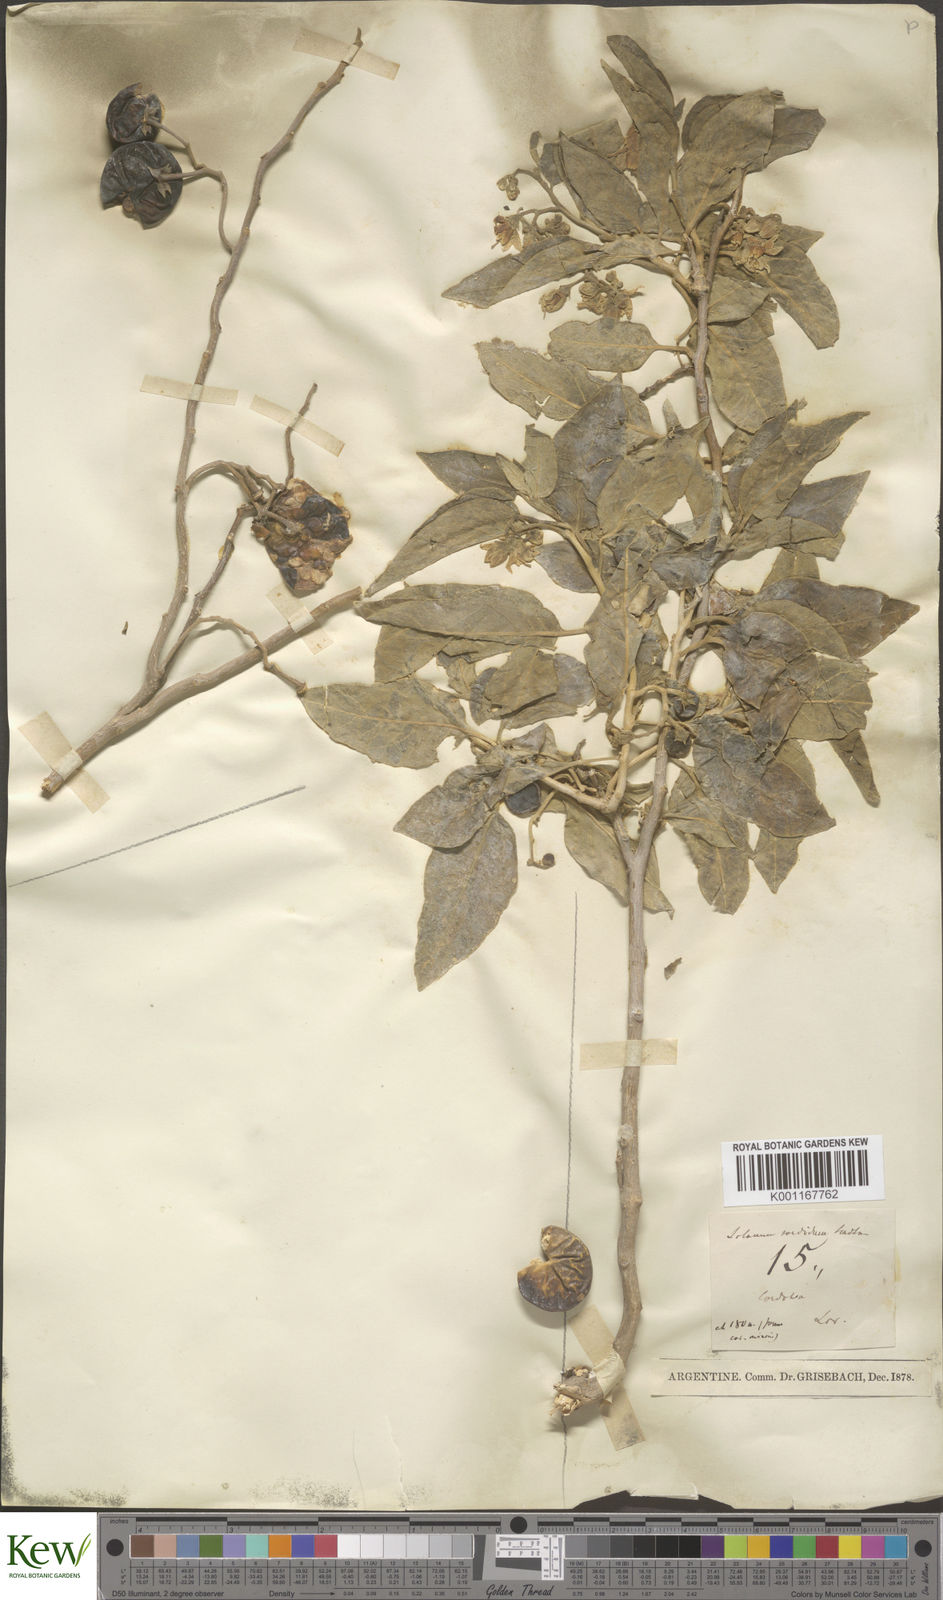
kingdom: Plantae
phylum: Tracheophyta
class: Magnoliopsida
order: Solanales
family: Solanaceae
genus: Solanum
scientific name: Solanum stuckertii
